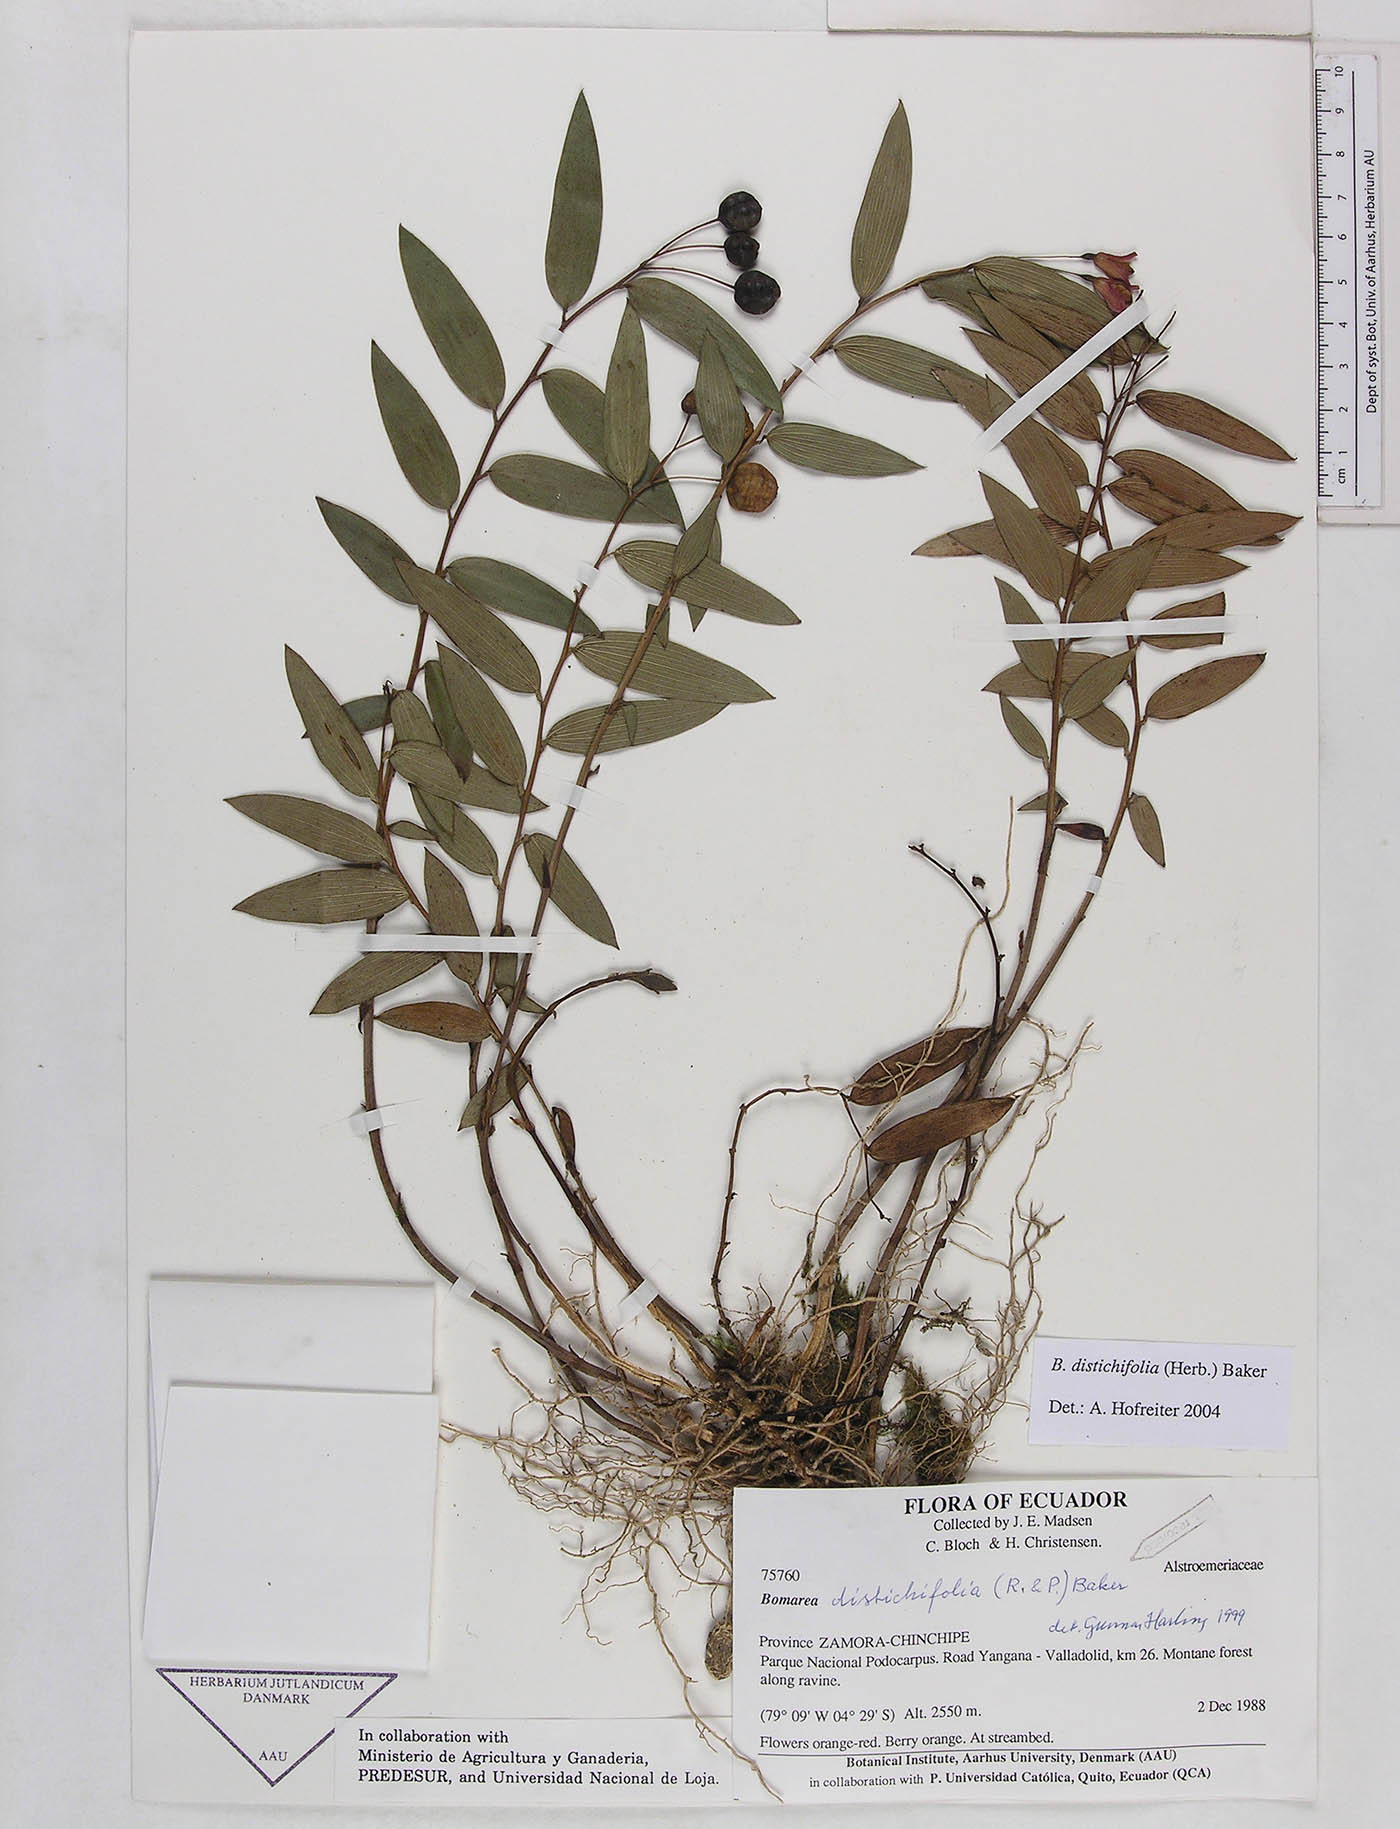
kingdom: Plantae
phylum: Tracheophyta
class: Liliopsida
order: Liliales
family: Alstroemeriaceae
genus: Bomarea
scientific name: Bomarea distichifolia
